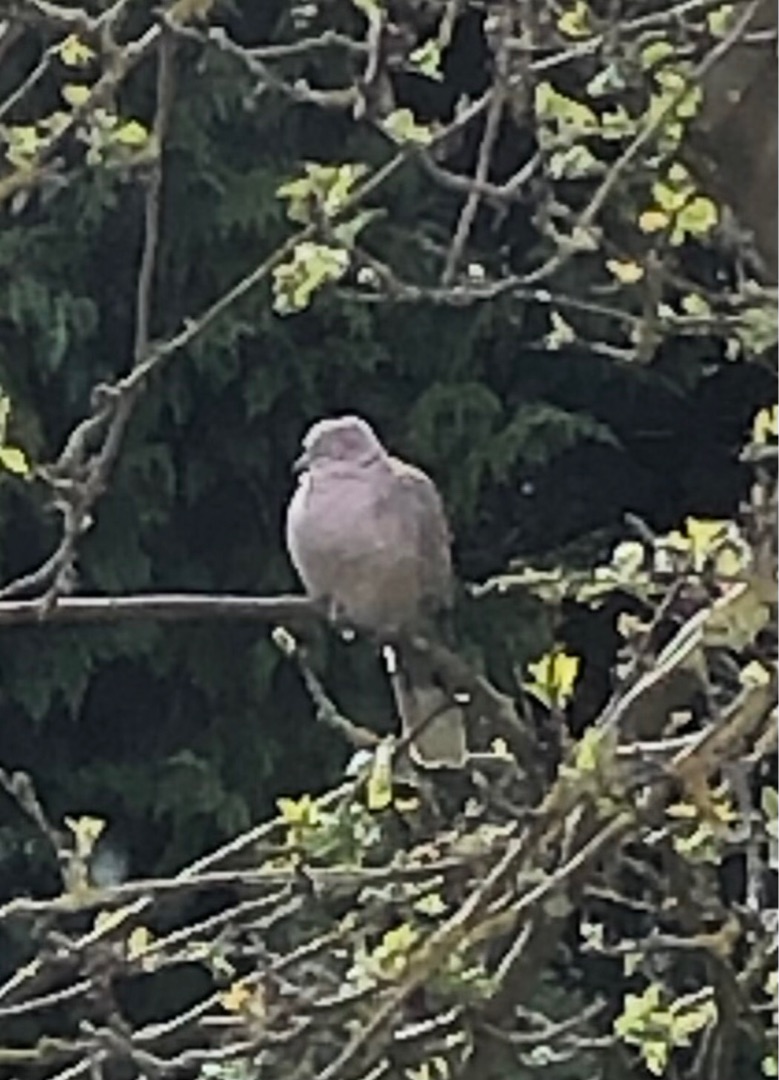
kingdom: Animalia
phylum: Chordata
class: Aves
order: Columbiformes
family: Columbidae
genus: Streptopelia
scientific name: Streptopelia decaocto
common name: Tyrkerdue
